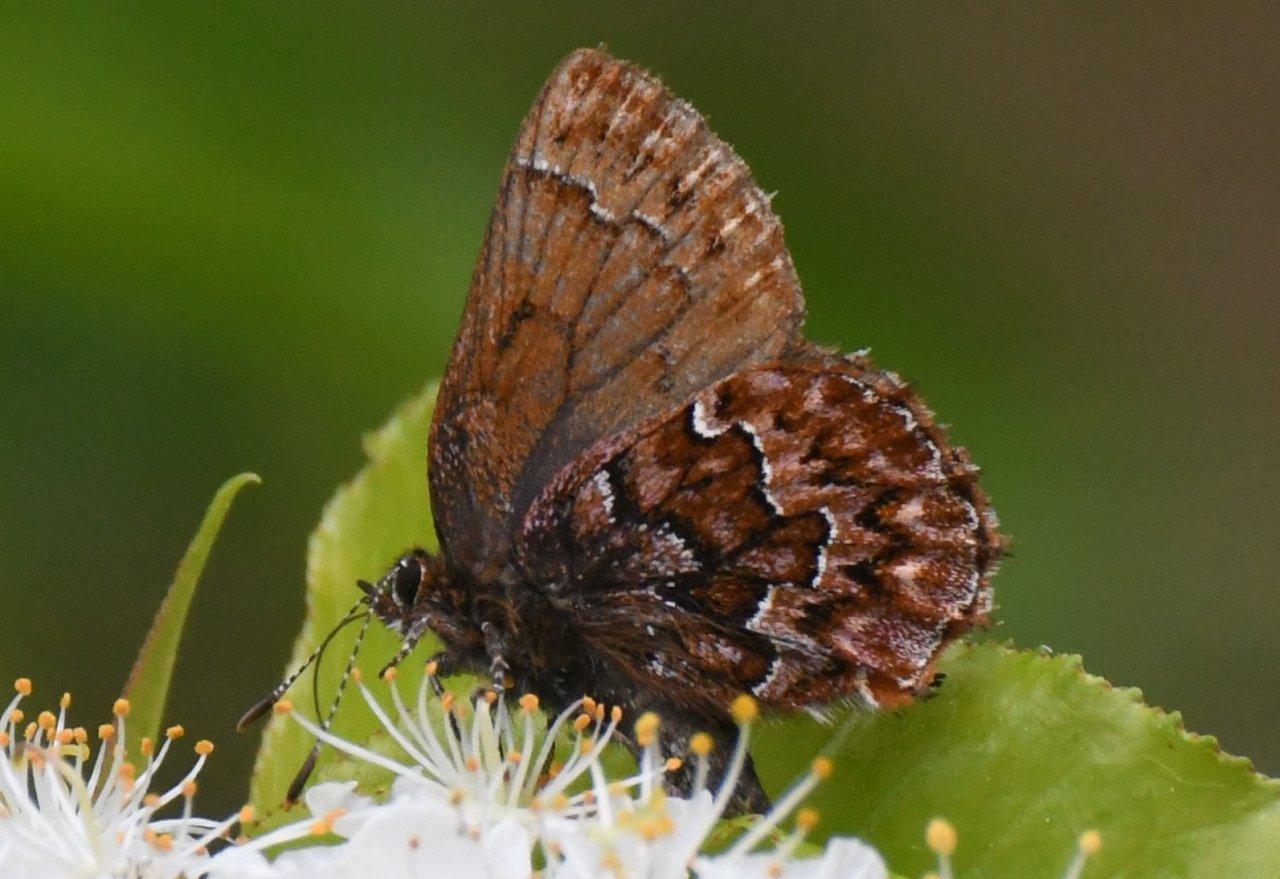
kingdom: Animalia
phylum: Arthropoda
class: Insecta
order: Lepidoptera
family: Lycaenidae
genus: Incisalia
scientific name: Incisalia eryphon
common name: Western Pine Elfin
